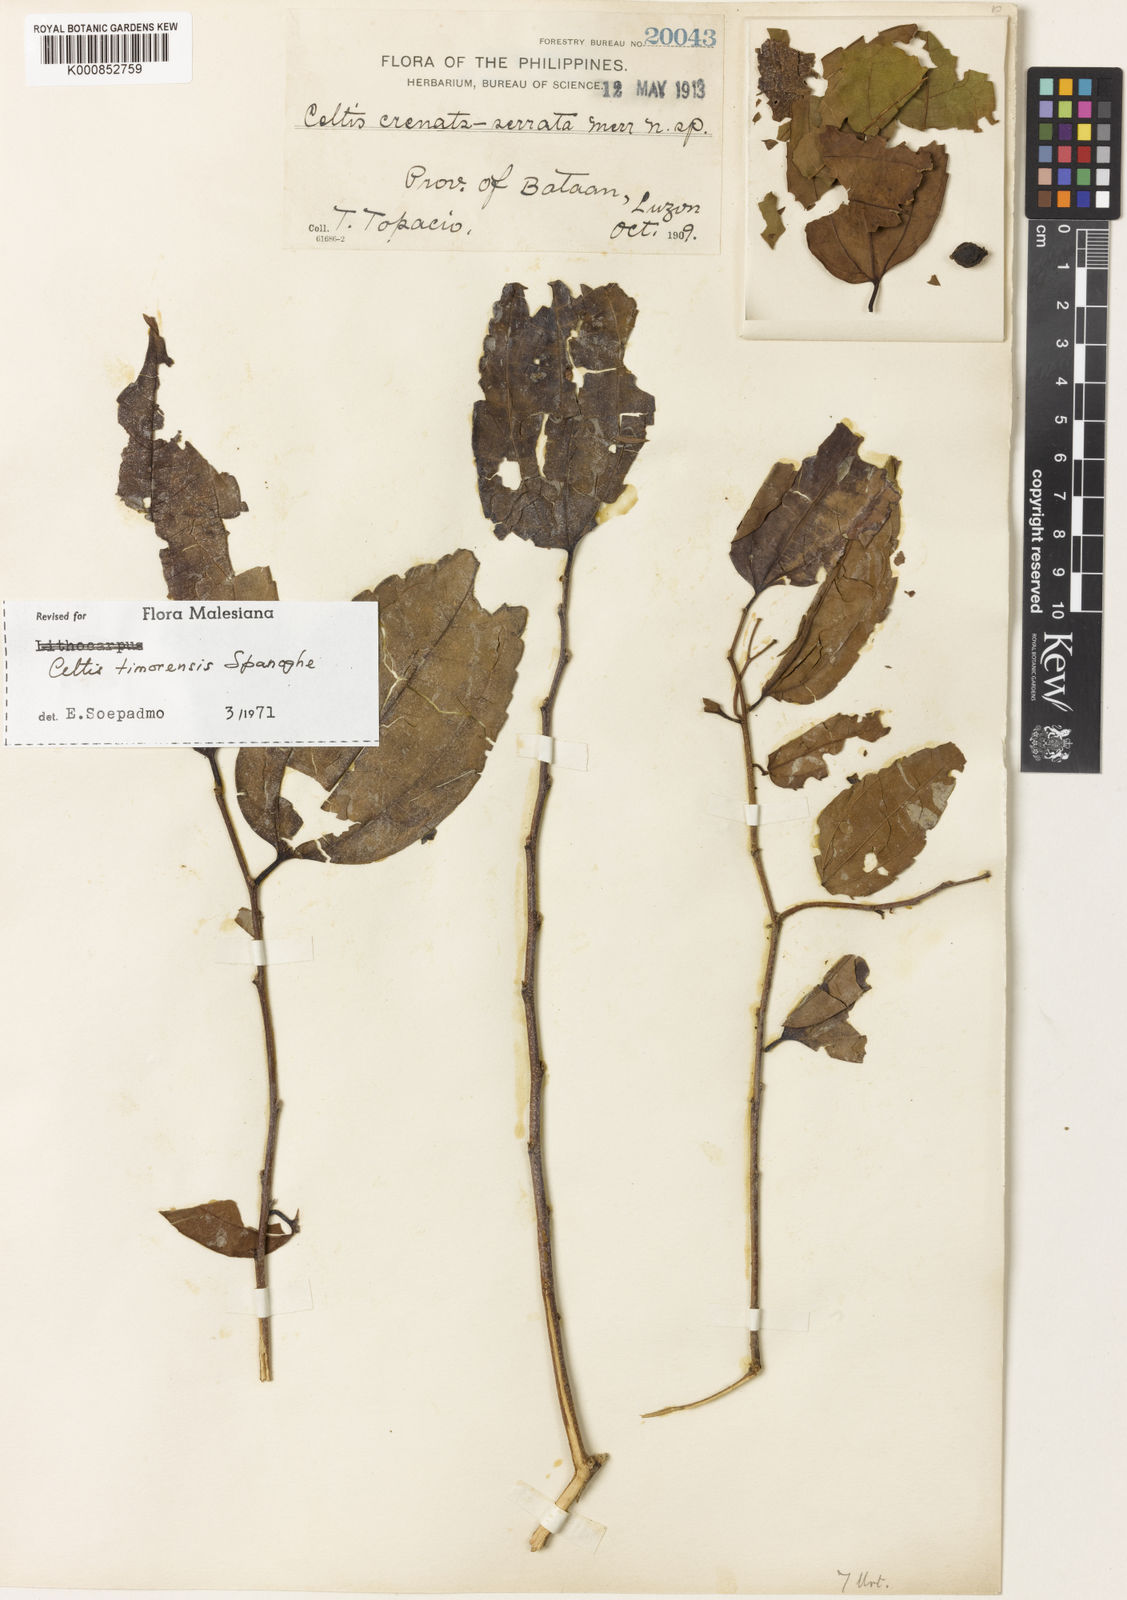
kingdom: Plantae
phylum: Tracheophyta
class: Magnoliopsida
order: Rosales
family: Cannabaceae
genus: Celtis
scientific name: Celtis timorensis
